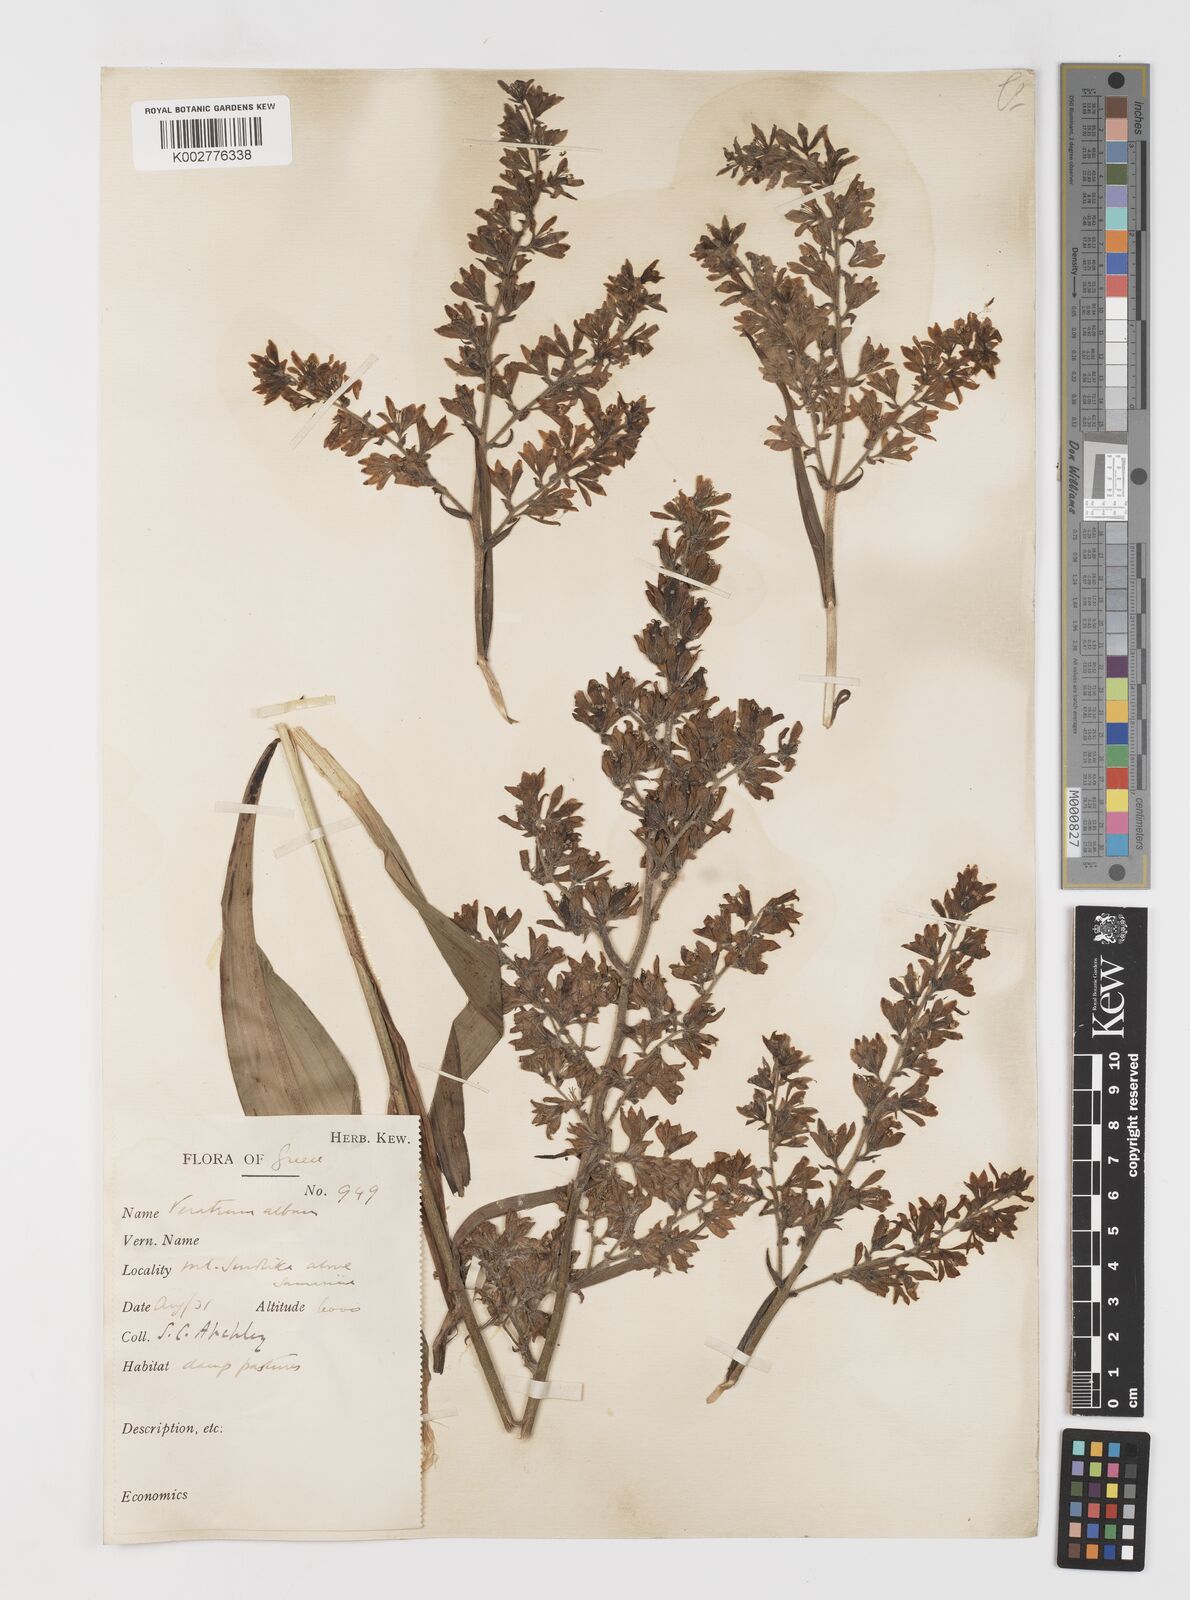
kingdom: Plantae
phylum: Tracheophyta
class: Liliopsida
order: Liliales
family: Melanthiaceae
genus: Veratrum
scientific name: Veratrum album
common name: White veratrum
